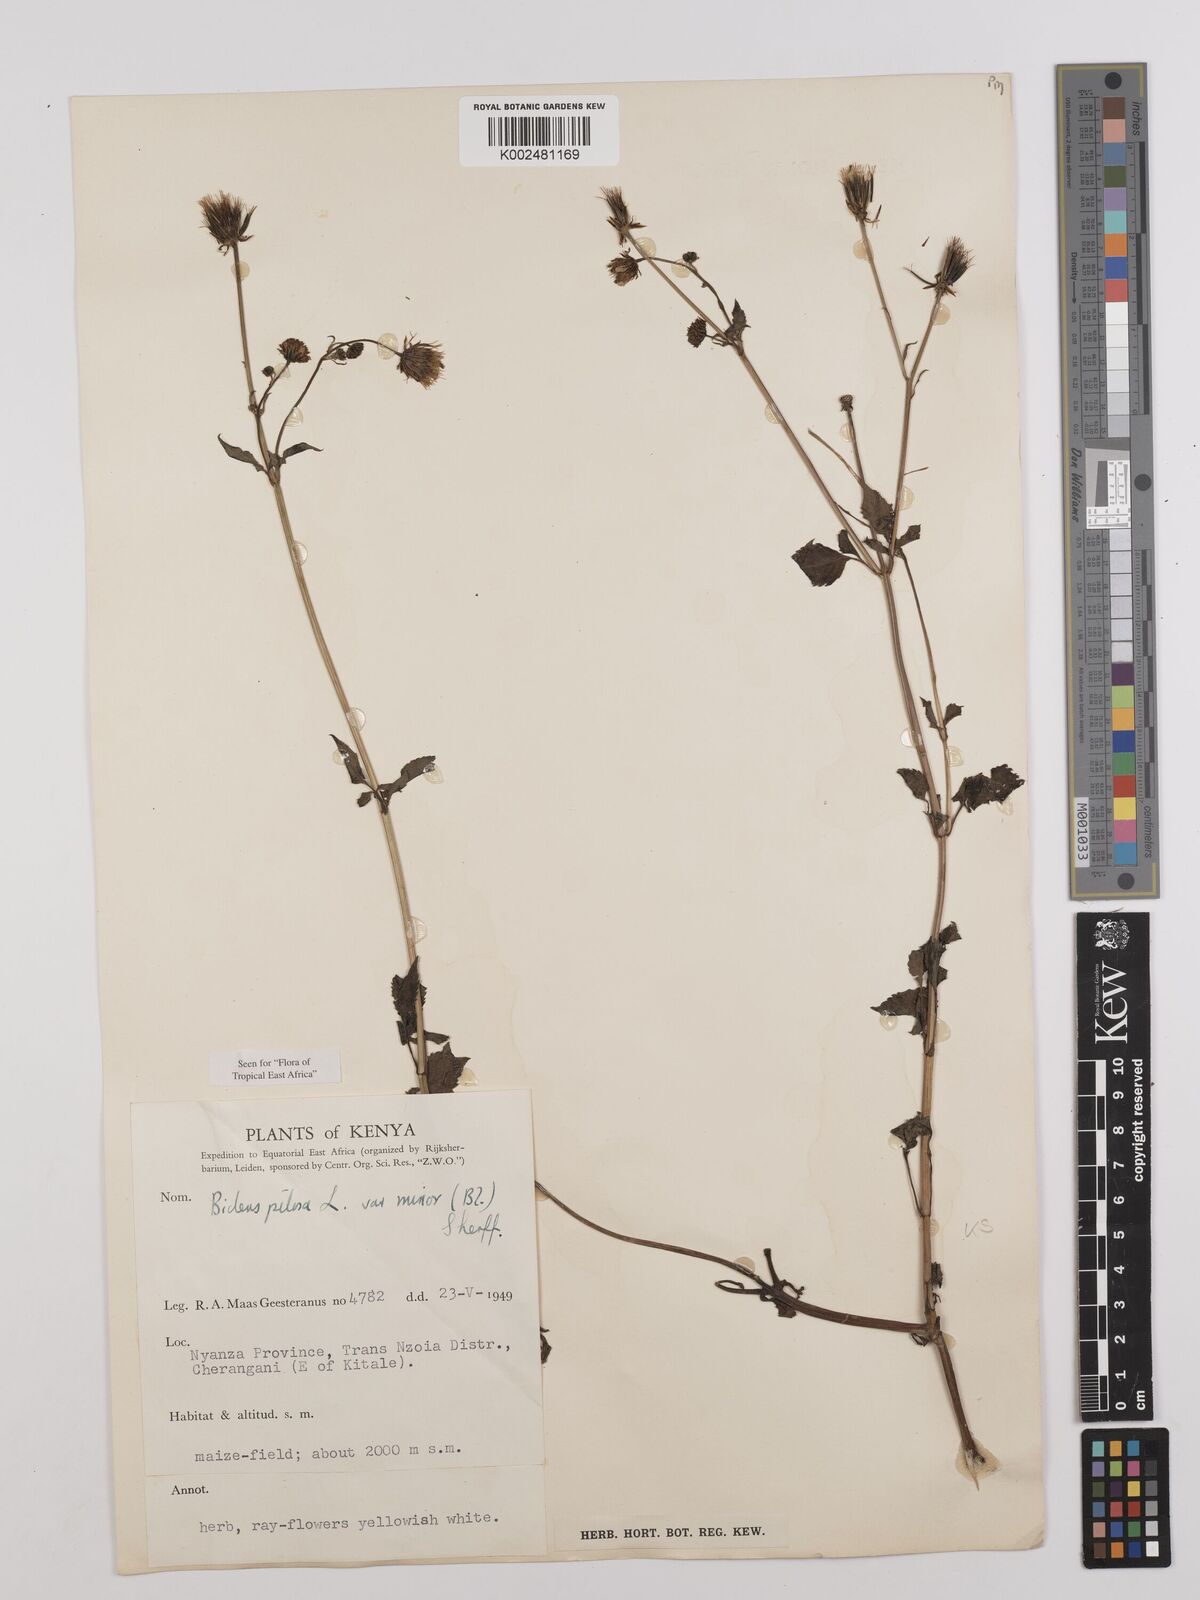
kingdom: Plantae
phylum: Tracheophyta
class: Magnoliopsida
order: Asterales
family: Asteraceae
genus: Bidens
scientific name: Bidens pilosa
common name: Black-jack
